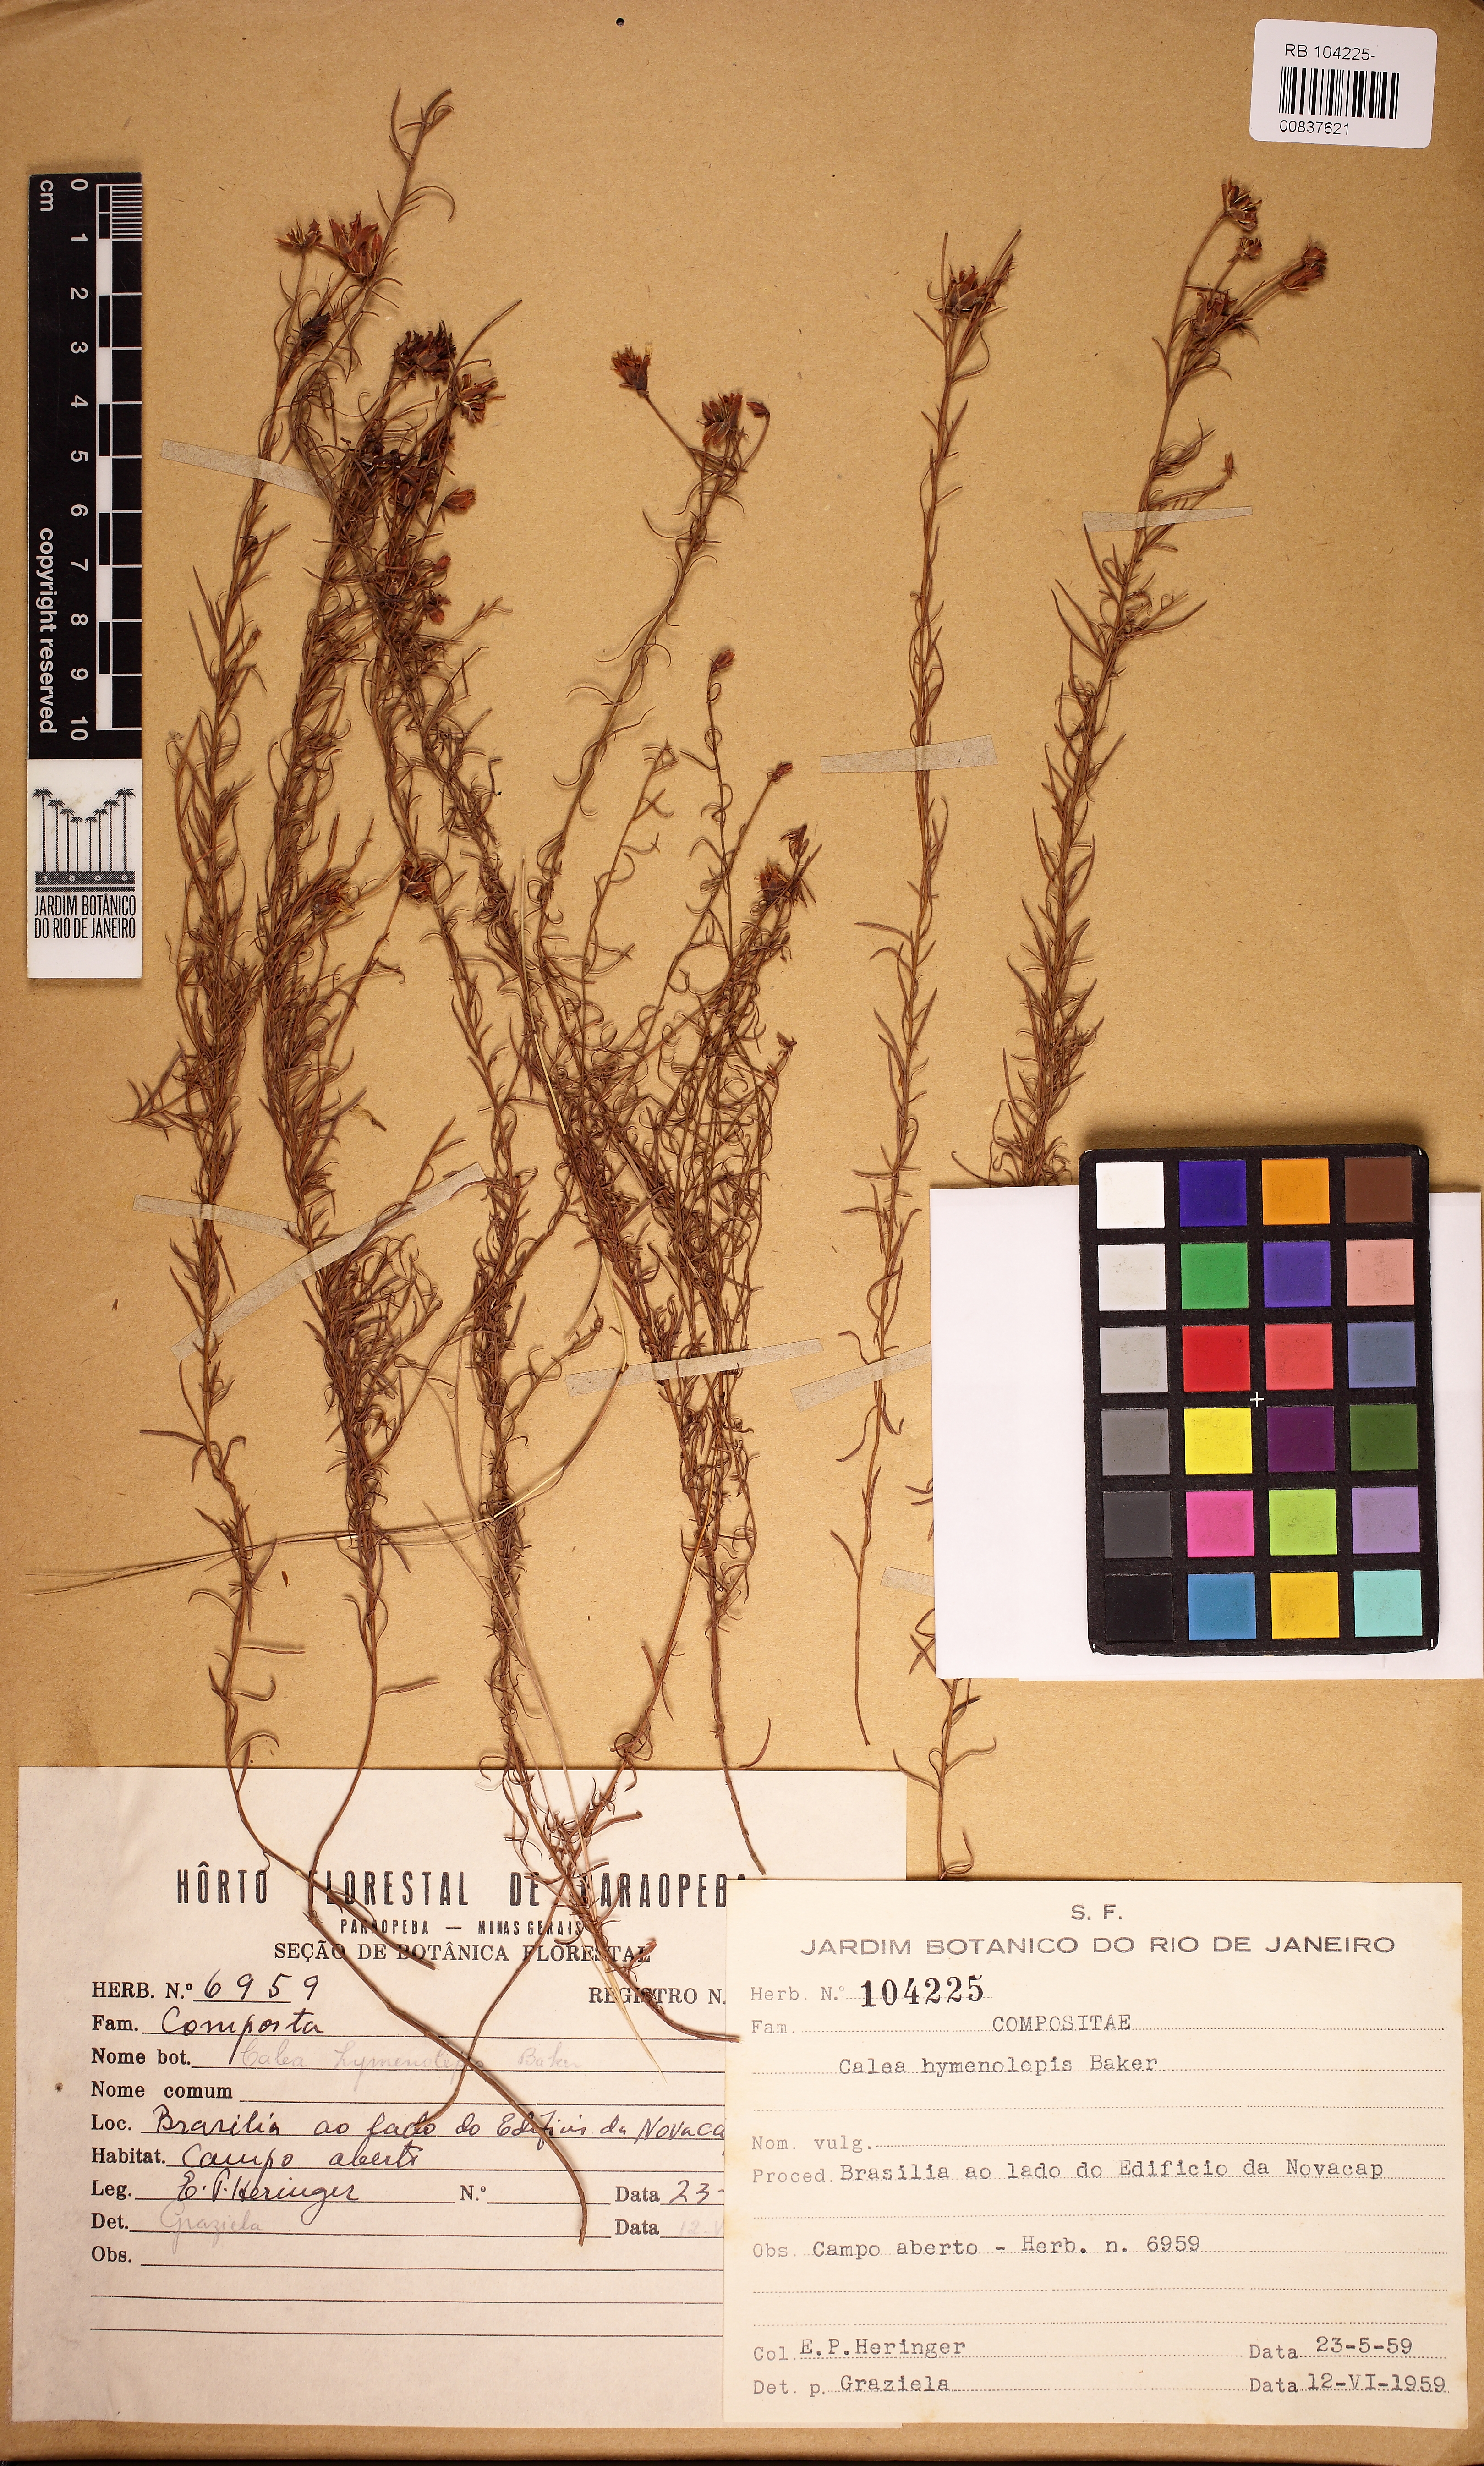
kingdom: Plantae
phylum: Tracheophyta
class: Magnoliopsida
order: Asterales
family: Asteraceae
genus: Calea
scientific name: Calea hymenolepis
